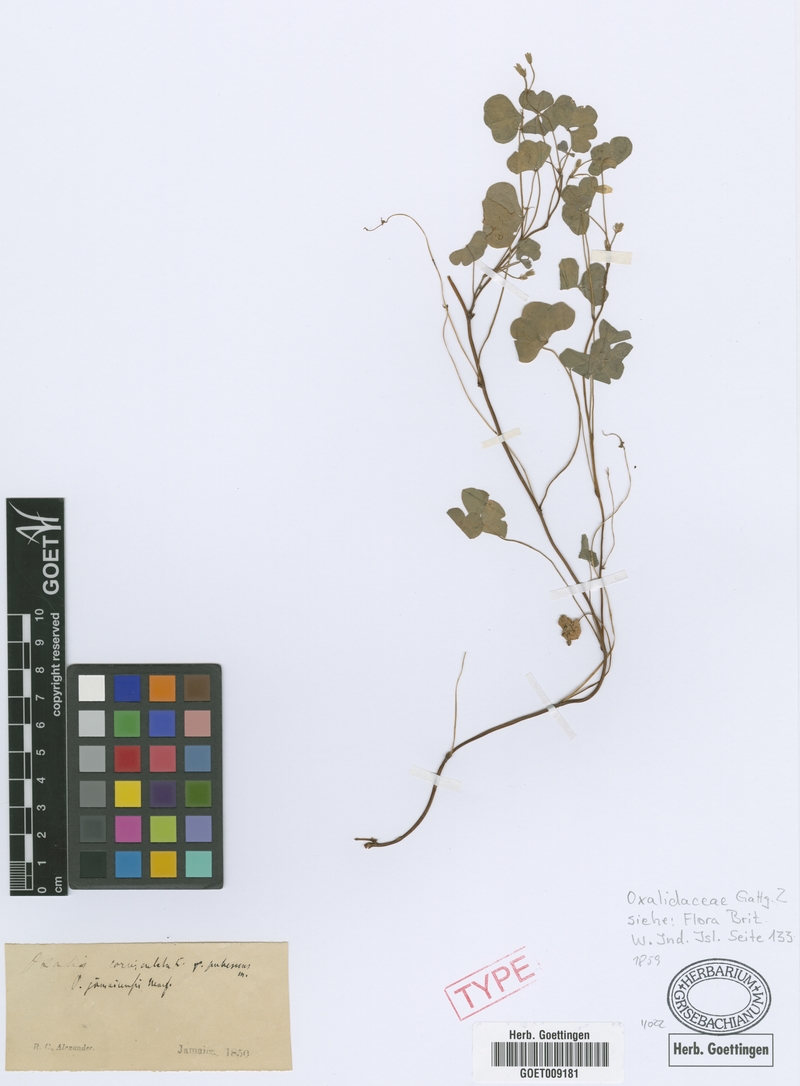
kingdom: Plantae
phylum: Tracheophyta
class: Magnoliopsida
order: Oxalidales
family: Oxalidaceae
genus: Oxalis
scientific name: Oxalis corniculata
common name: Procumbent yellow-sorrel
